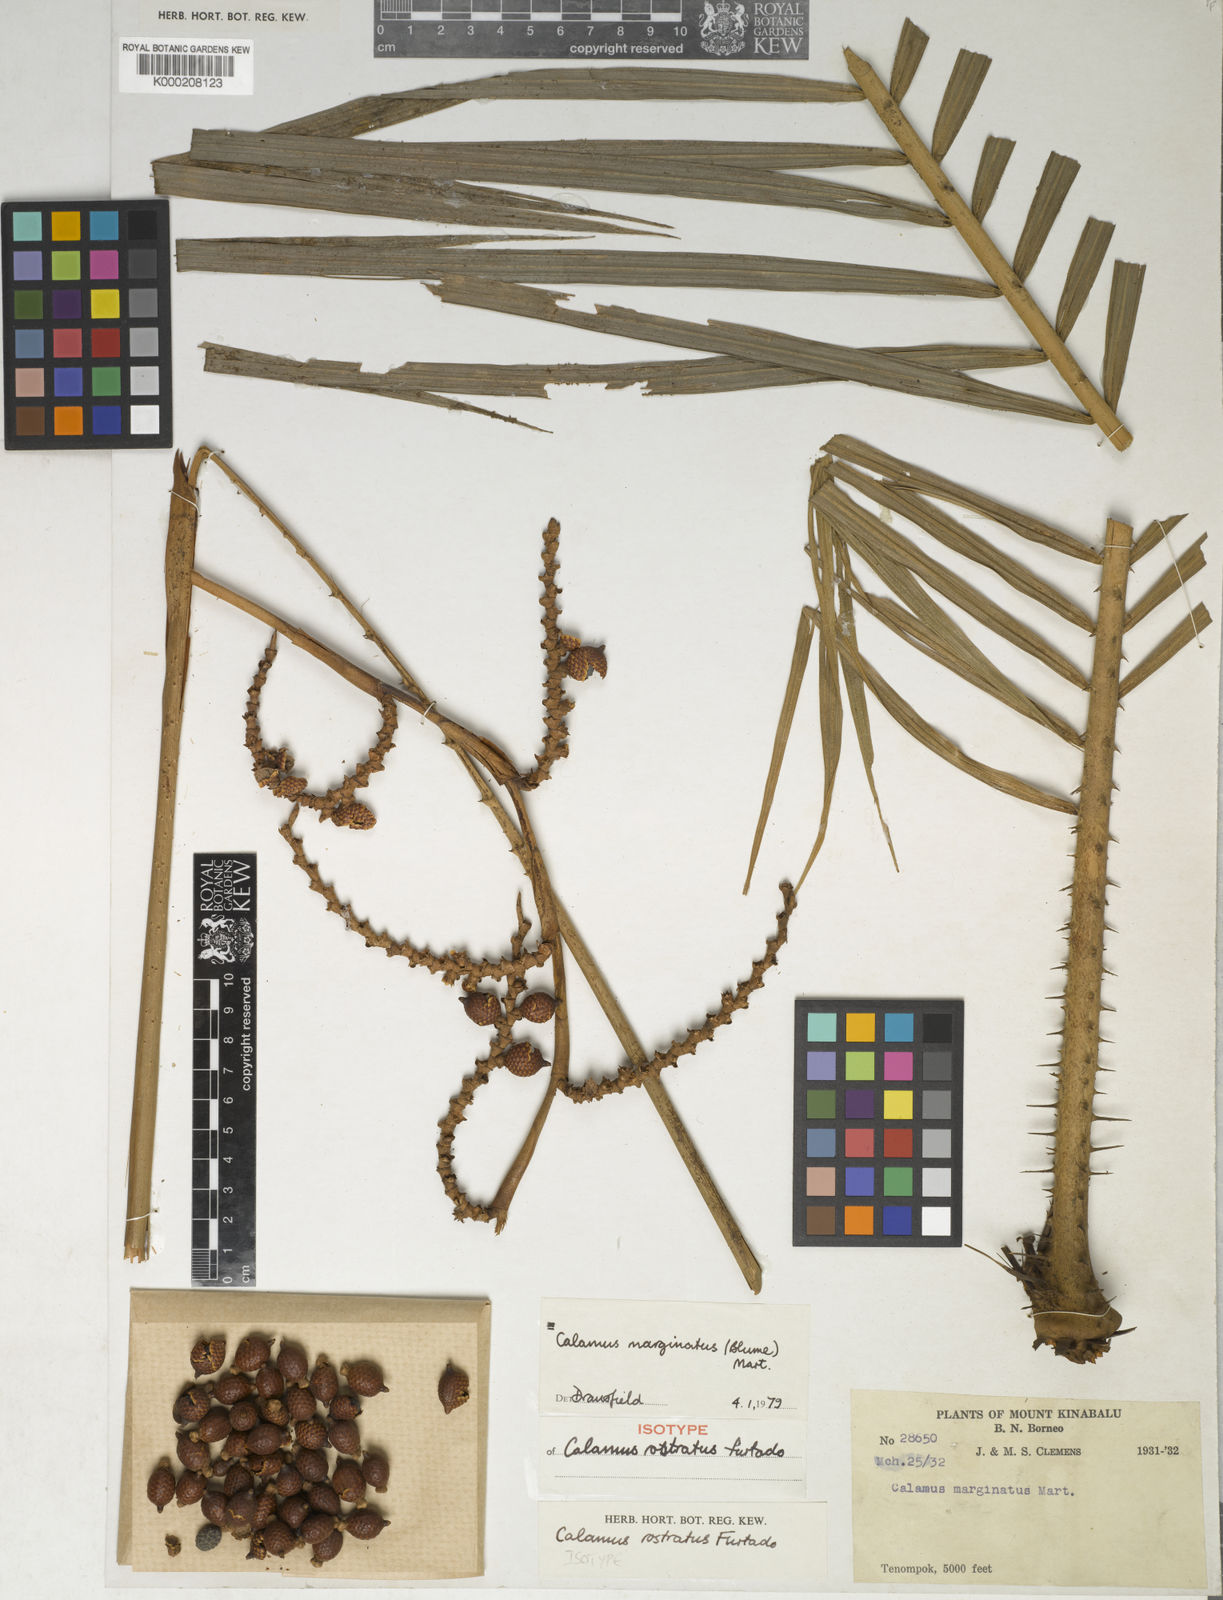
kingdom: Plantae
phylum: Tracheophyta
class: Liliopsida
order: Arecales
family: Arecaceae
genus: Calamus
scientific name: Calamus
